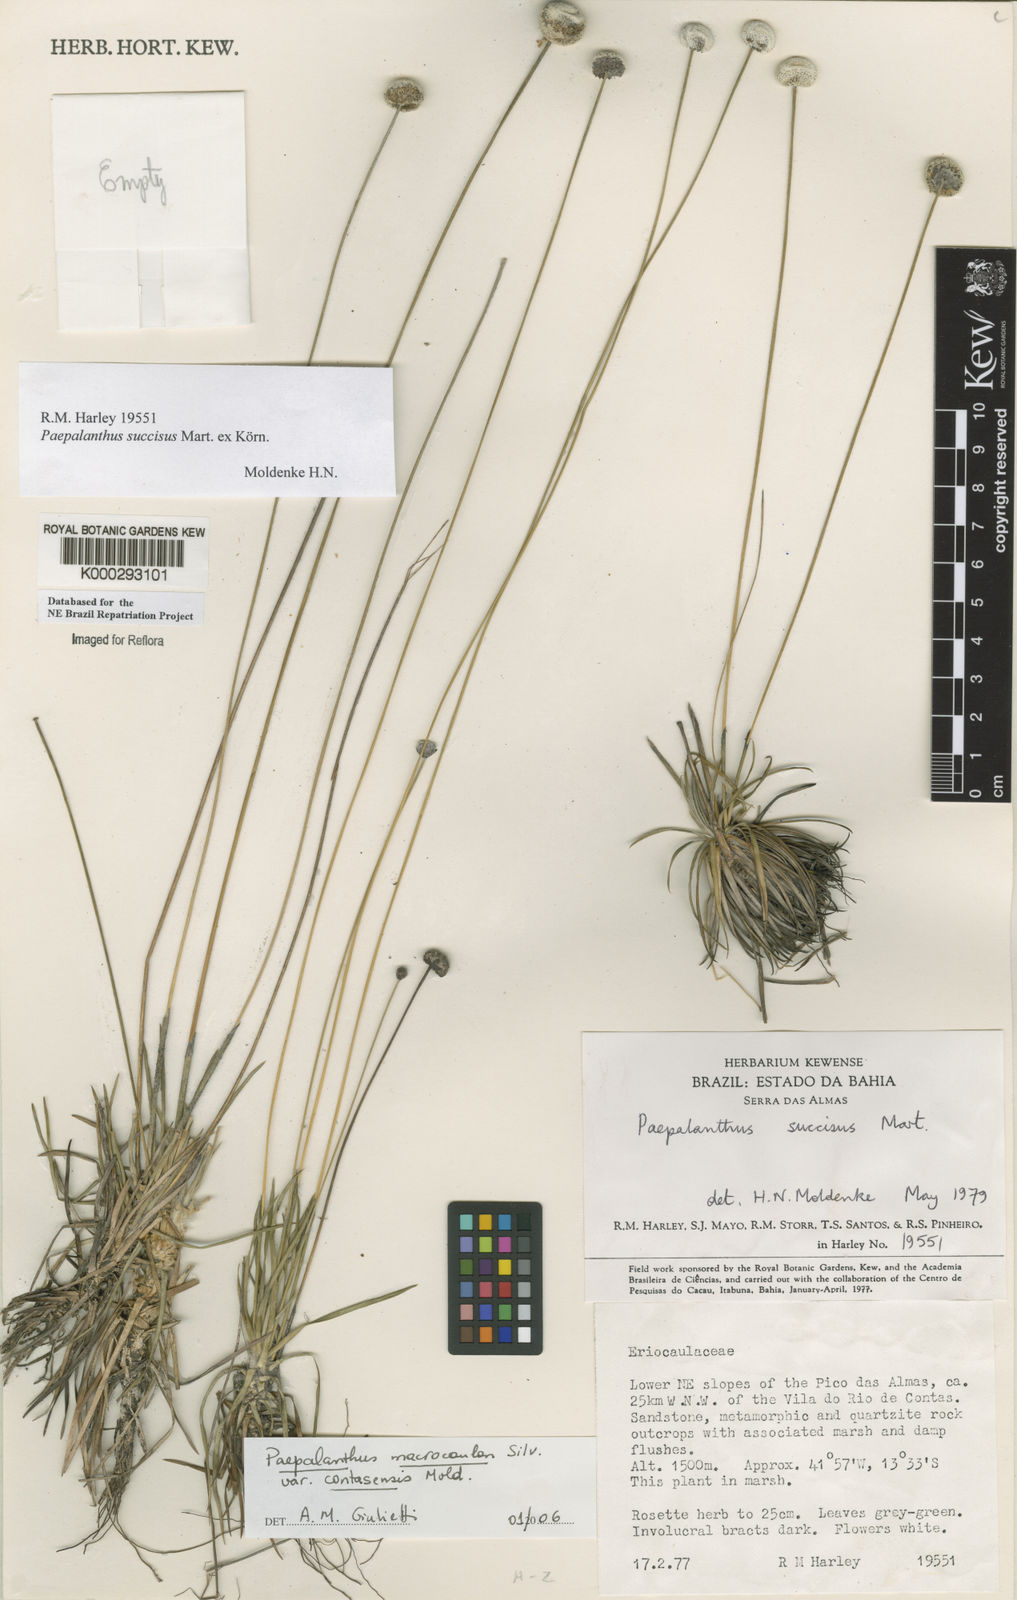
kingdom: Plantae
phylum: Tracheophyta
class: Liliopsida
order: Poales
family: Eriocaulaceae
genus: Paepalanthus
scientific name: Paepalanthus
